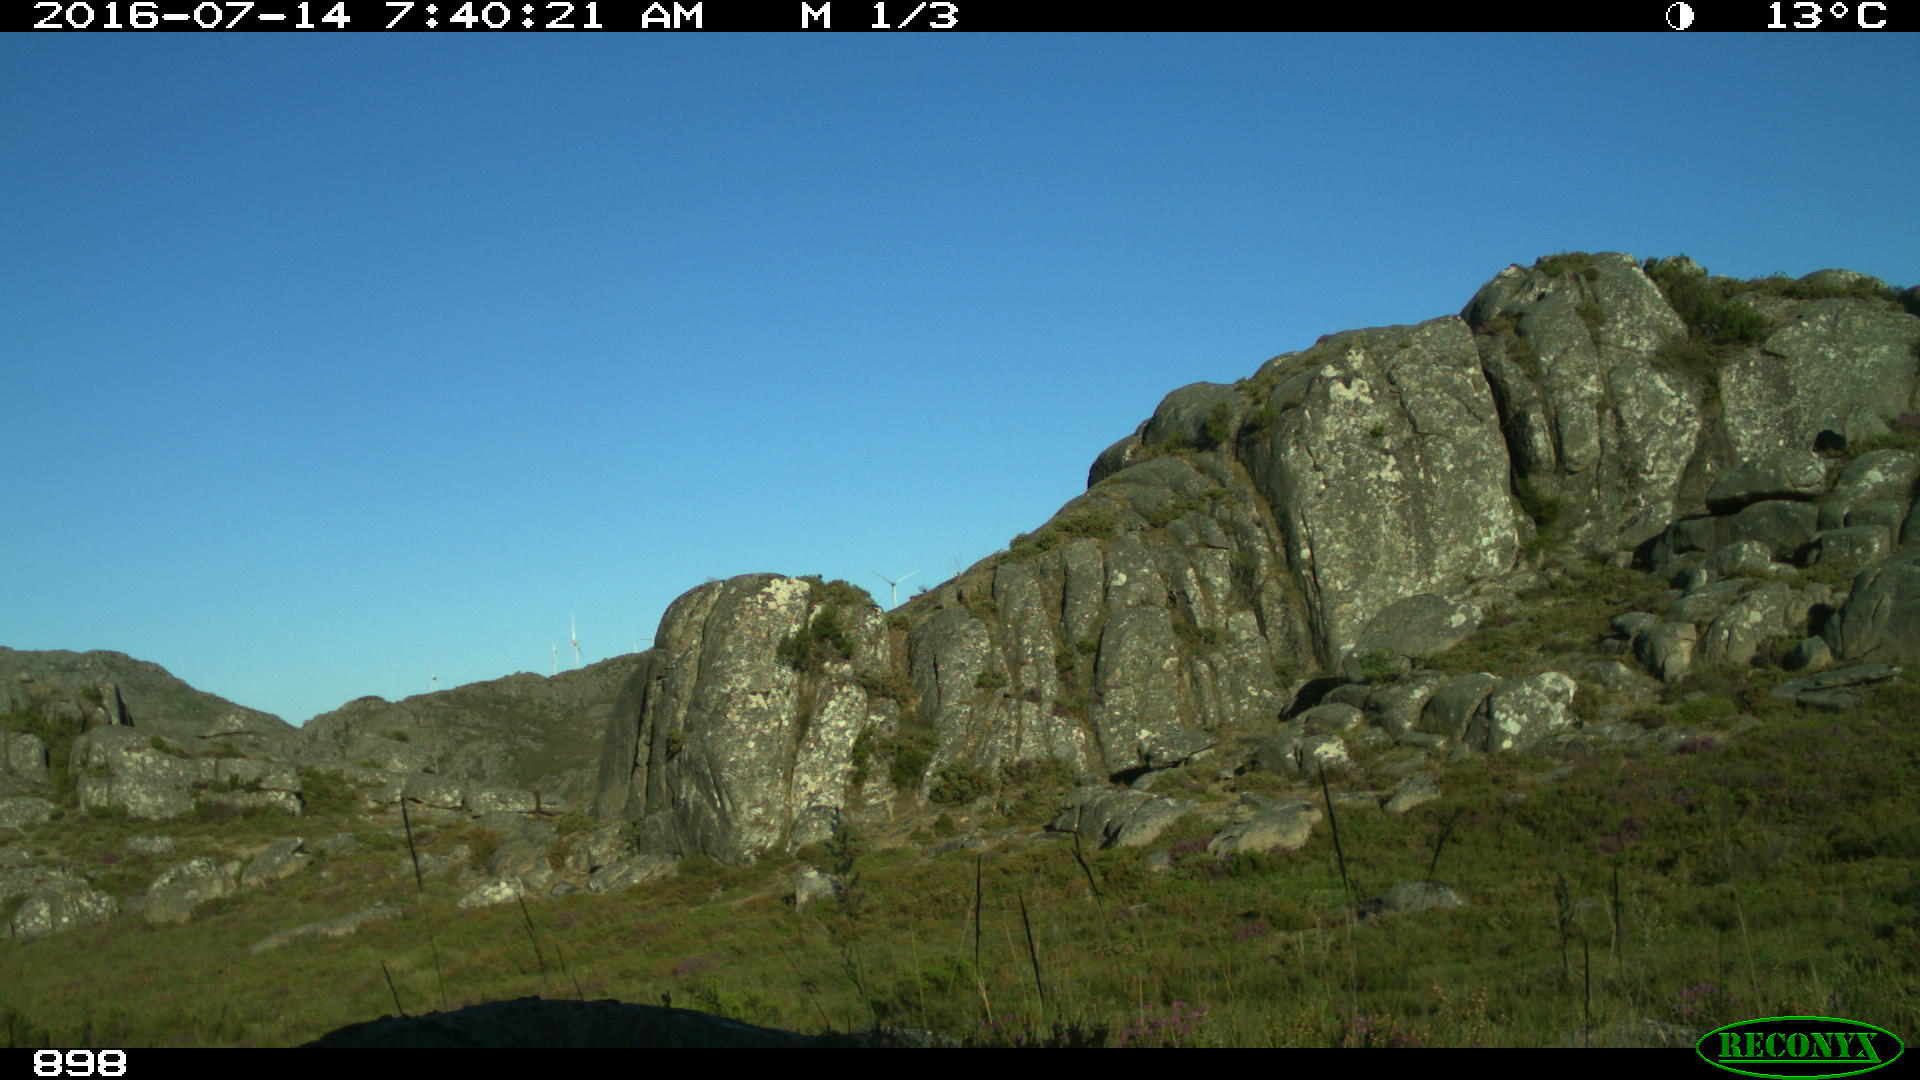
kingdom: Animalia
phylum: Chordata
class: Mammalia
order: Perissodactyla
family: Equidae
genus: Equus
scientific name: Equus caballus
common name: Horse
